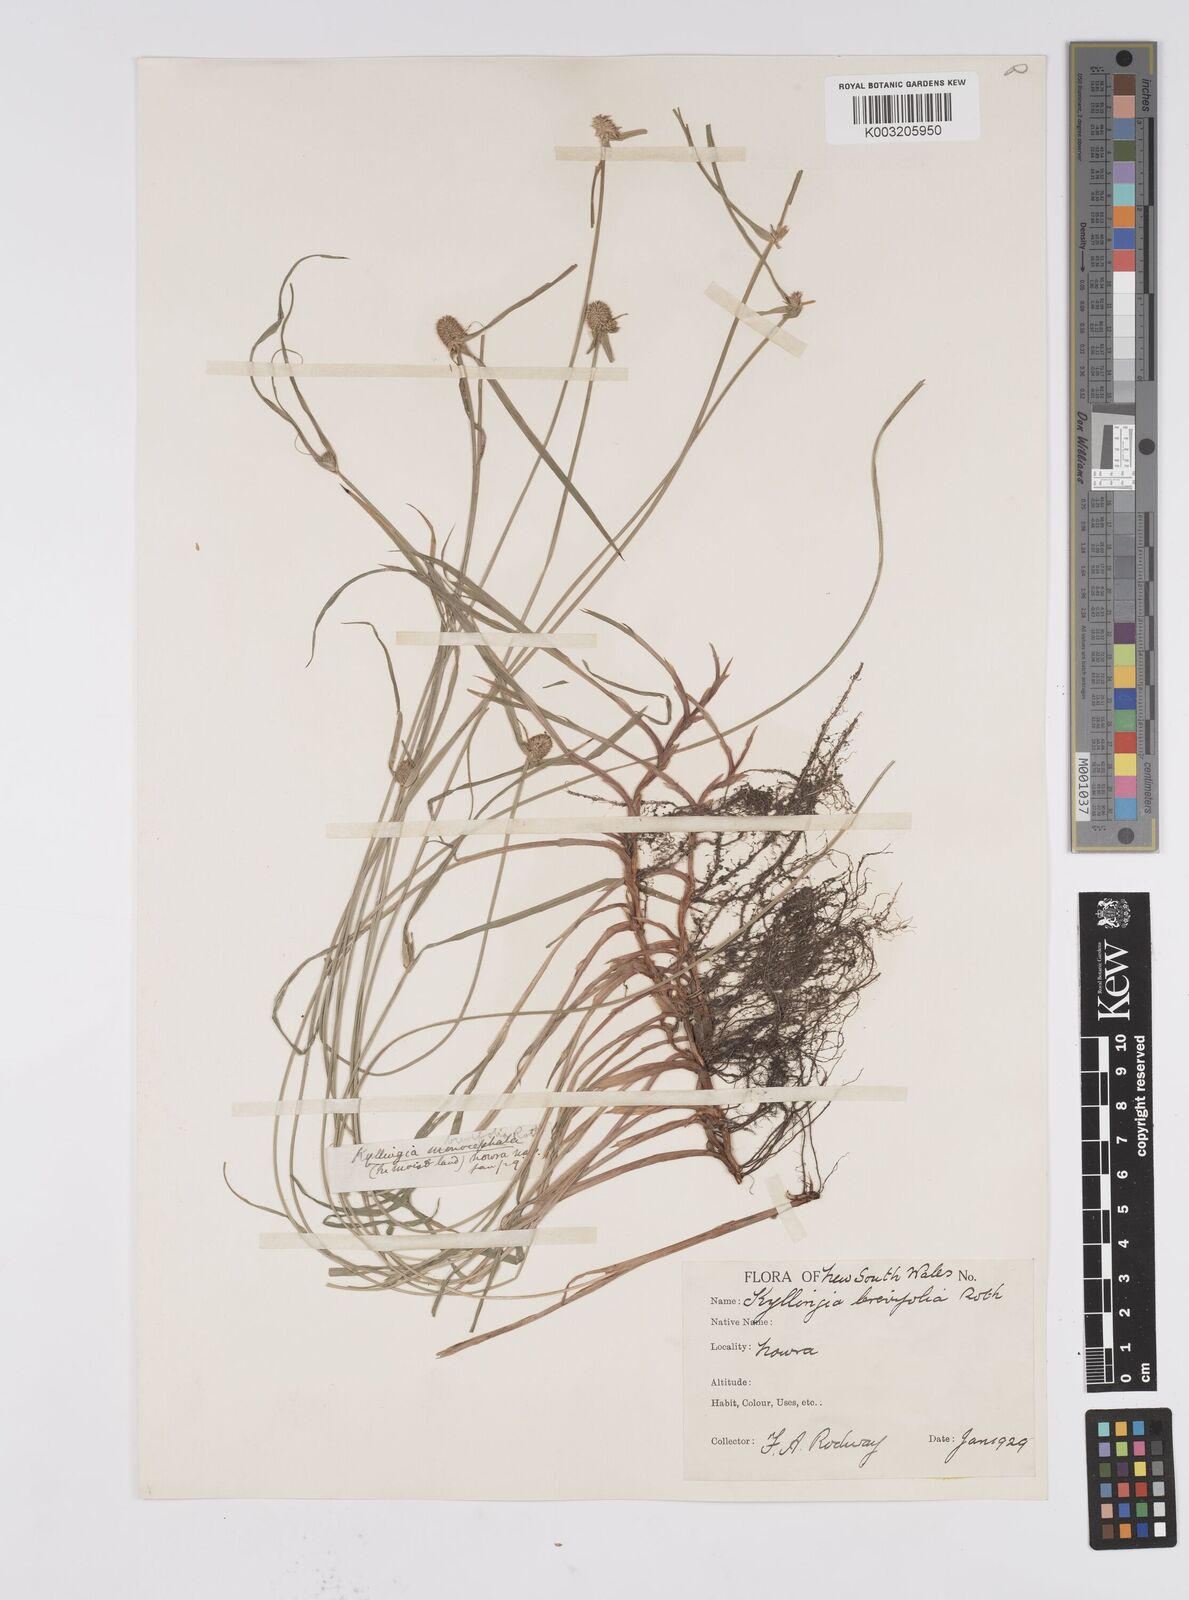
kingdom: Plantae
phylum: Tracheophyta
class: Liliopsida
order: Poales
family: Cyperaceae
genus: Cyperus
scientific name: Cyperus brevifolius
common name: Globe kyllinga
